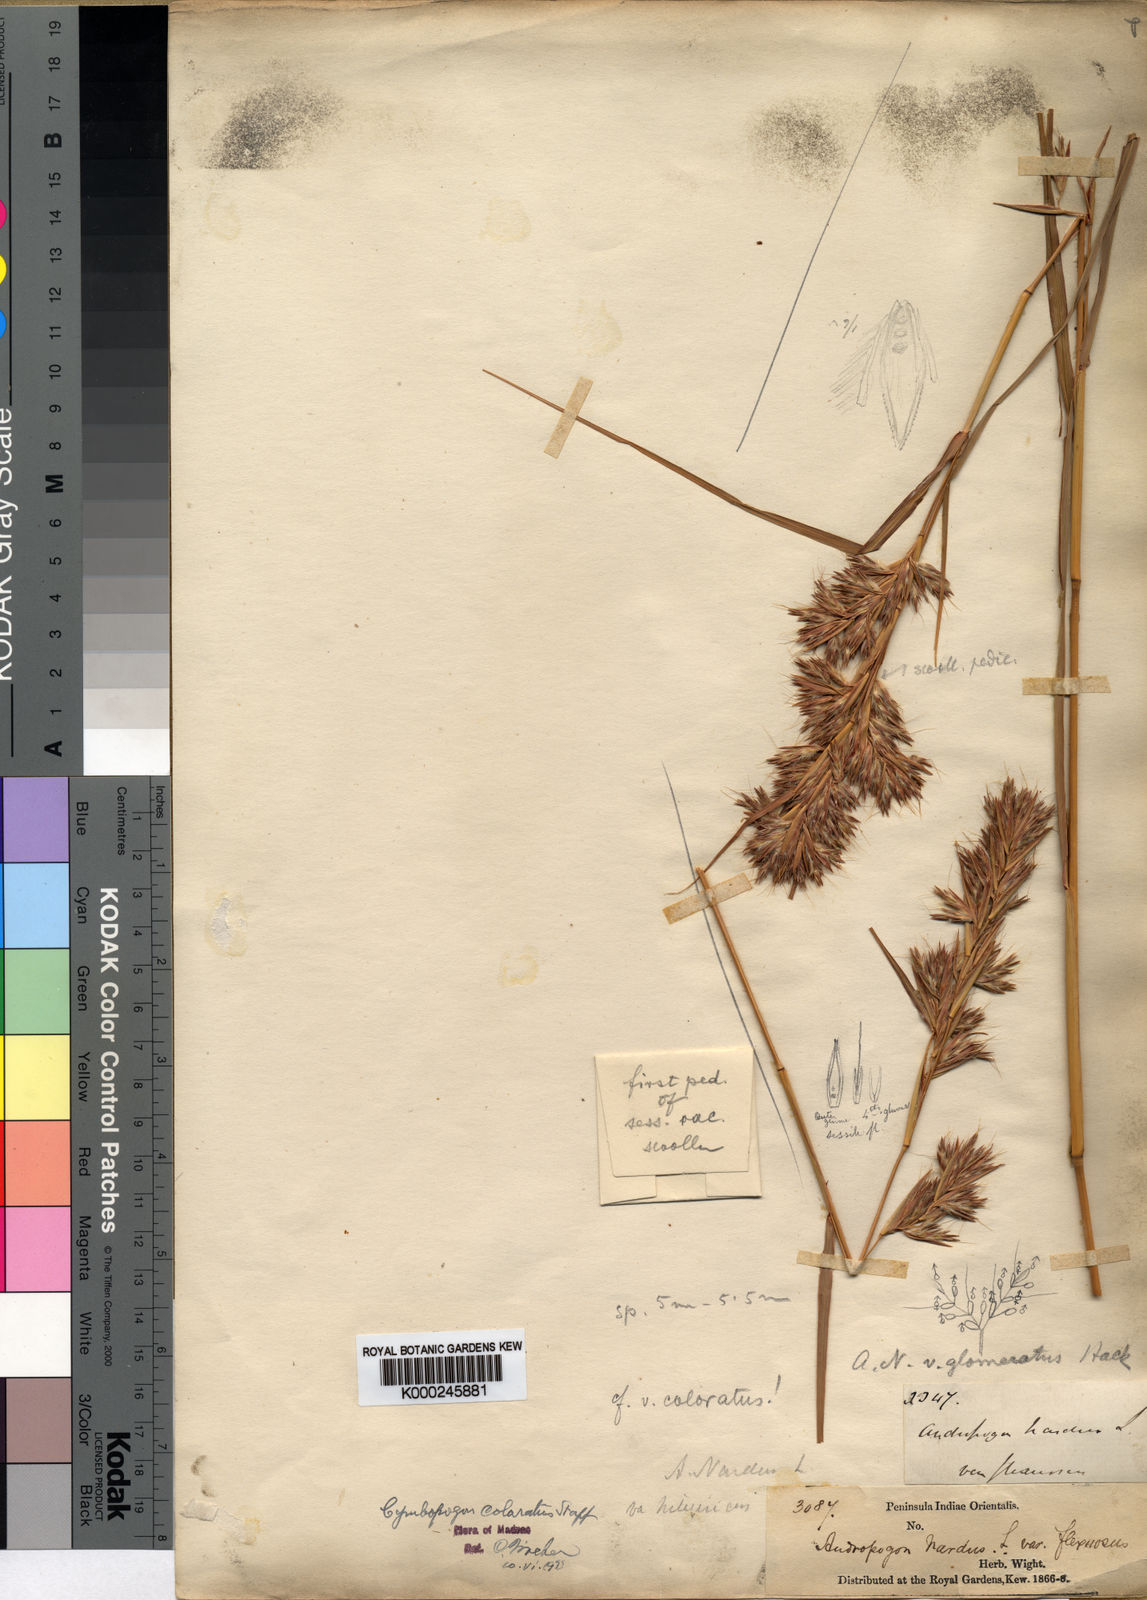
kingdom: Plantae
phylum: Tracheophyta
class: Liliopsida
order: Poales
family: Poaceae
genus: Cymbopogon
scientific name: Cymbopogon coloratus
